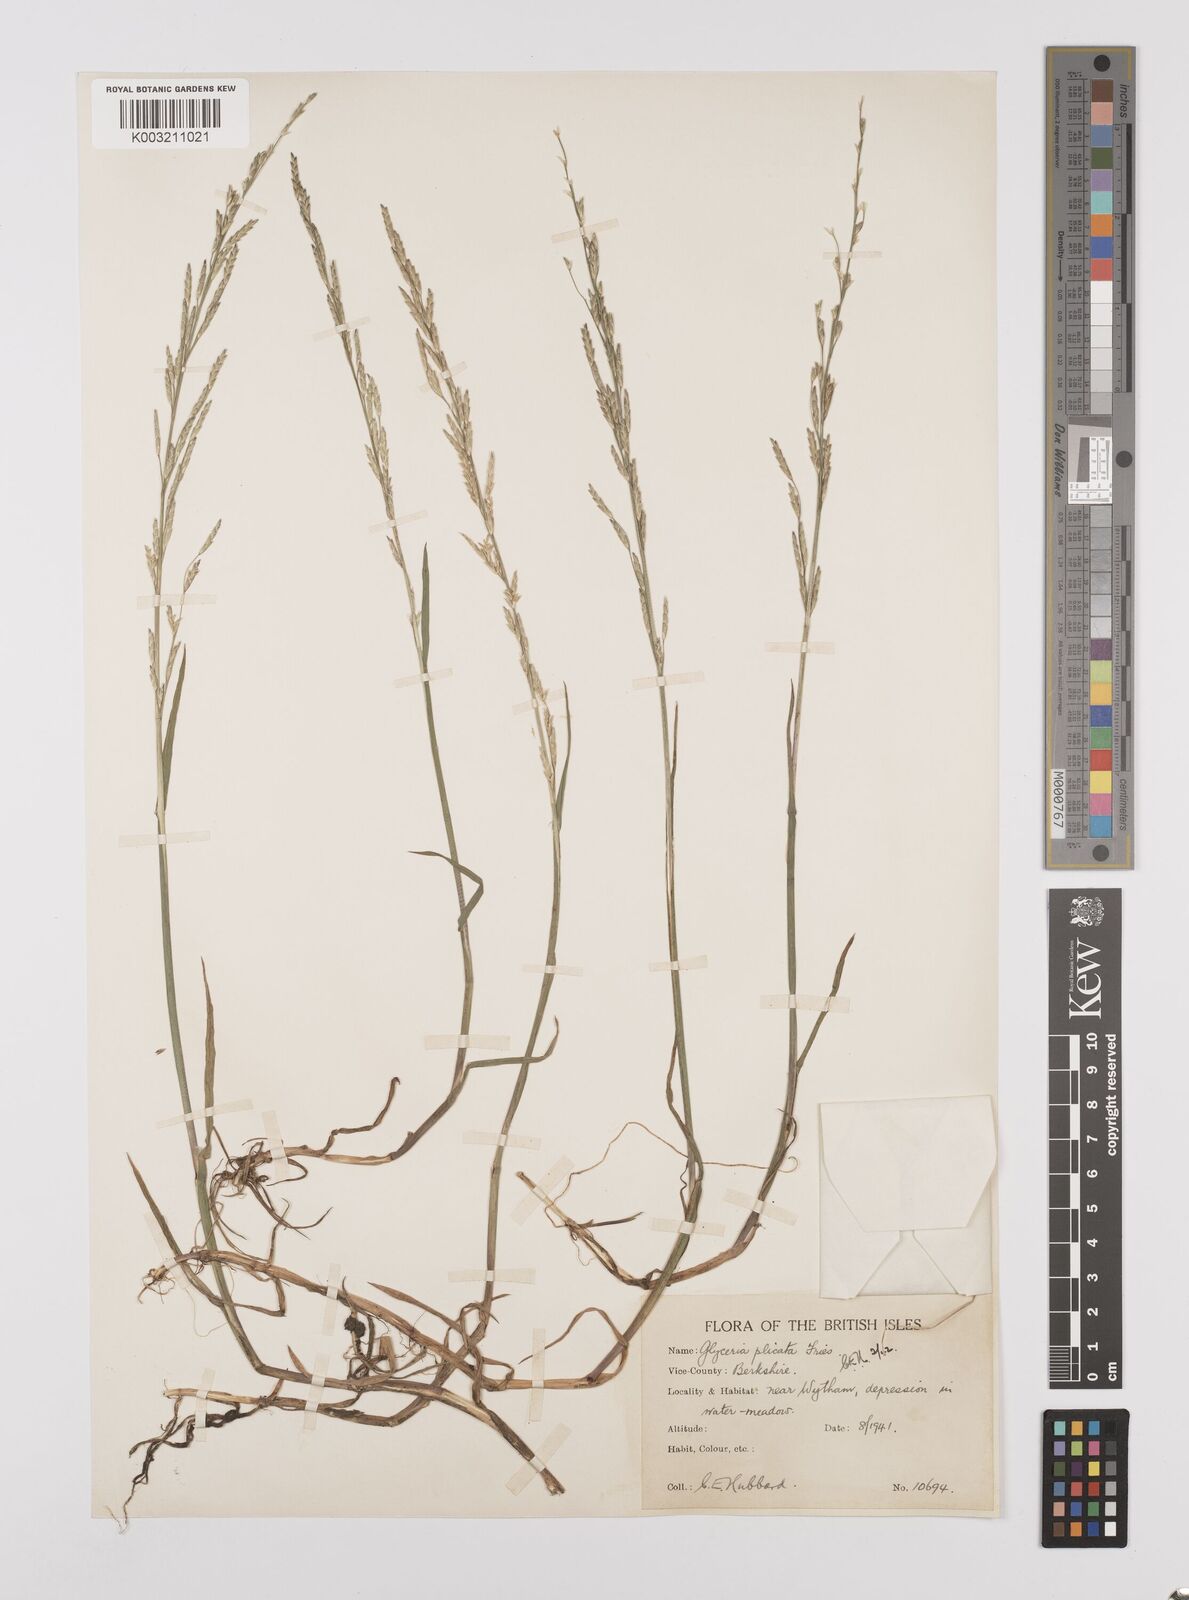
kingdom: Plantae
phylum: Tracheophyta
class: Liliopsida
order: Poales
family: Poaceae
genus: Glyceria
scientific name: Glyceria notata
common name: Plicate sweet-grass
